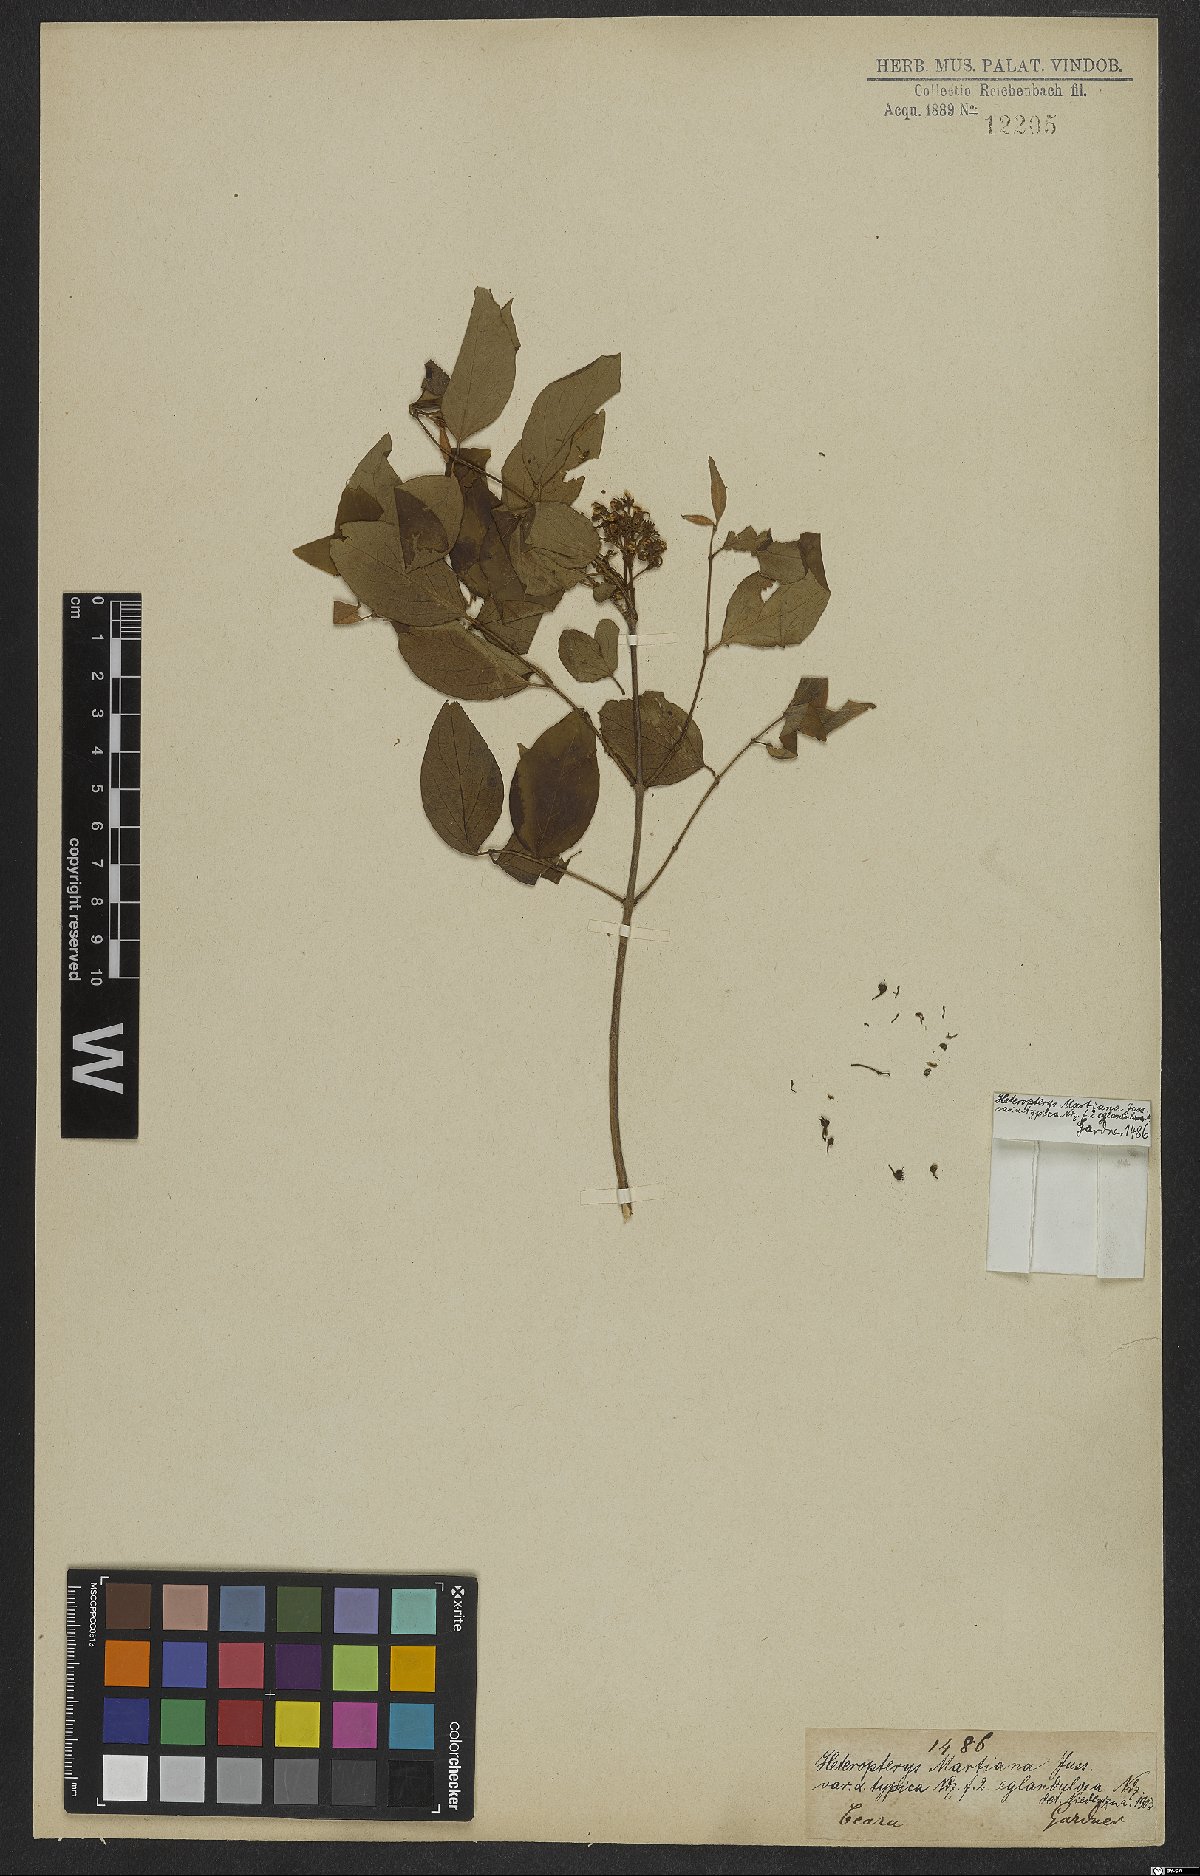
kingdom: Plantae
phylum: Tracheophyta
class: Magnoliopsida
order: Malpighiales
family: Malpighiaceae
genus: Heteropterys
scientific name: Heteropterys syringifolia
